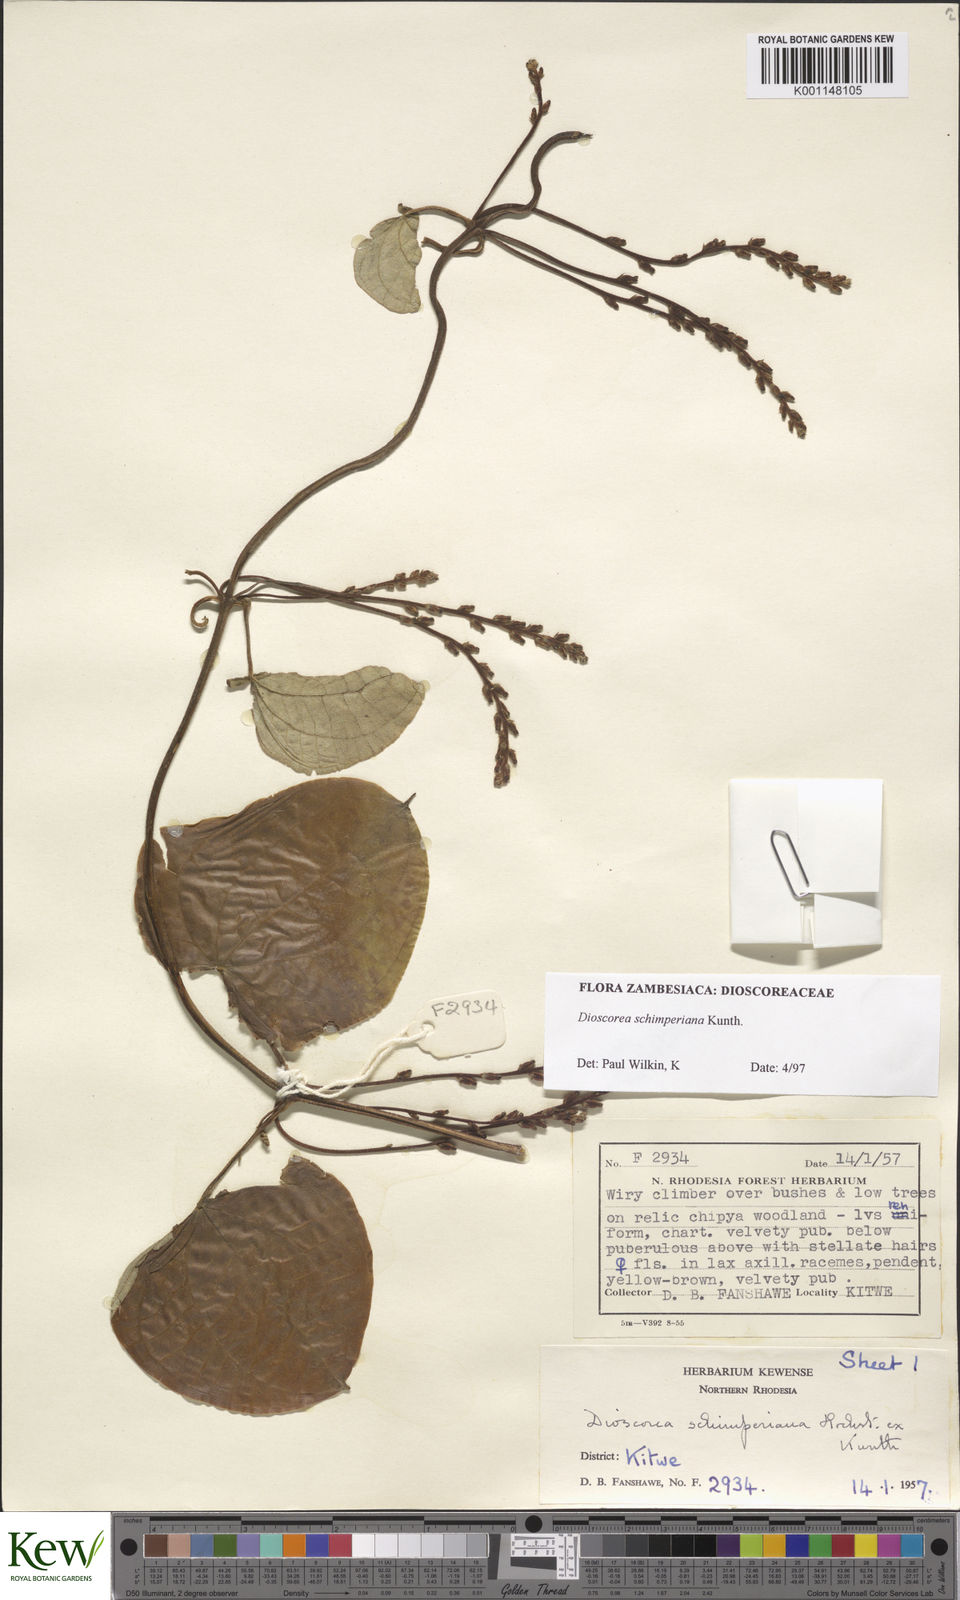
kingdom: Plantae
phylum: Tracheophyta
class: Liliopsida
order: Dioscoreales
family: Dioscoreaceae
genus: Dioscorea
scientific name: Dioscorea schimperiana
